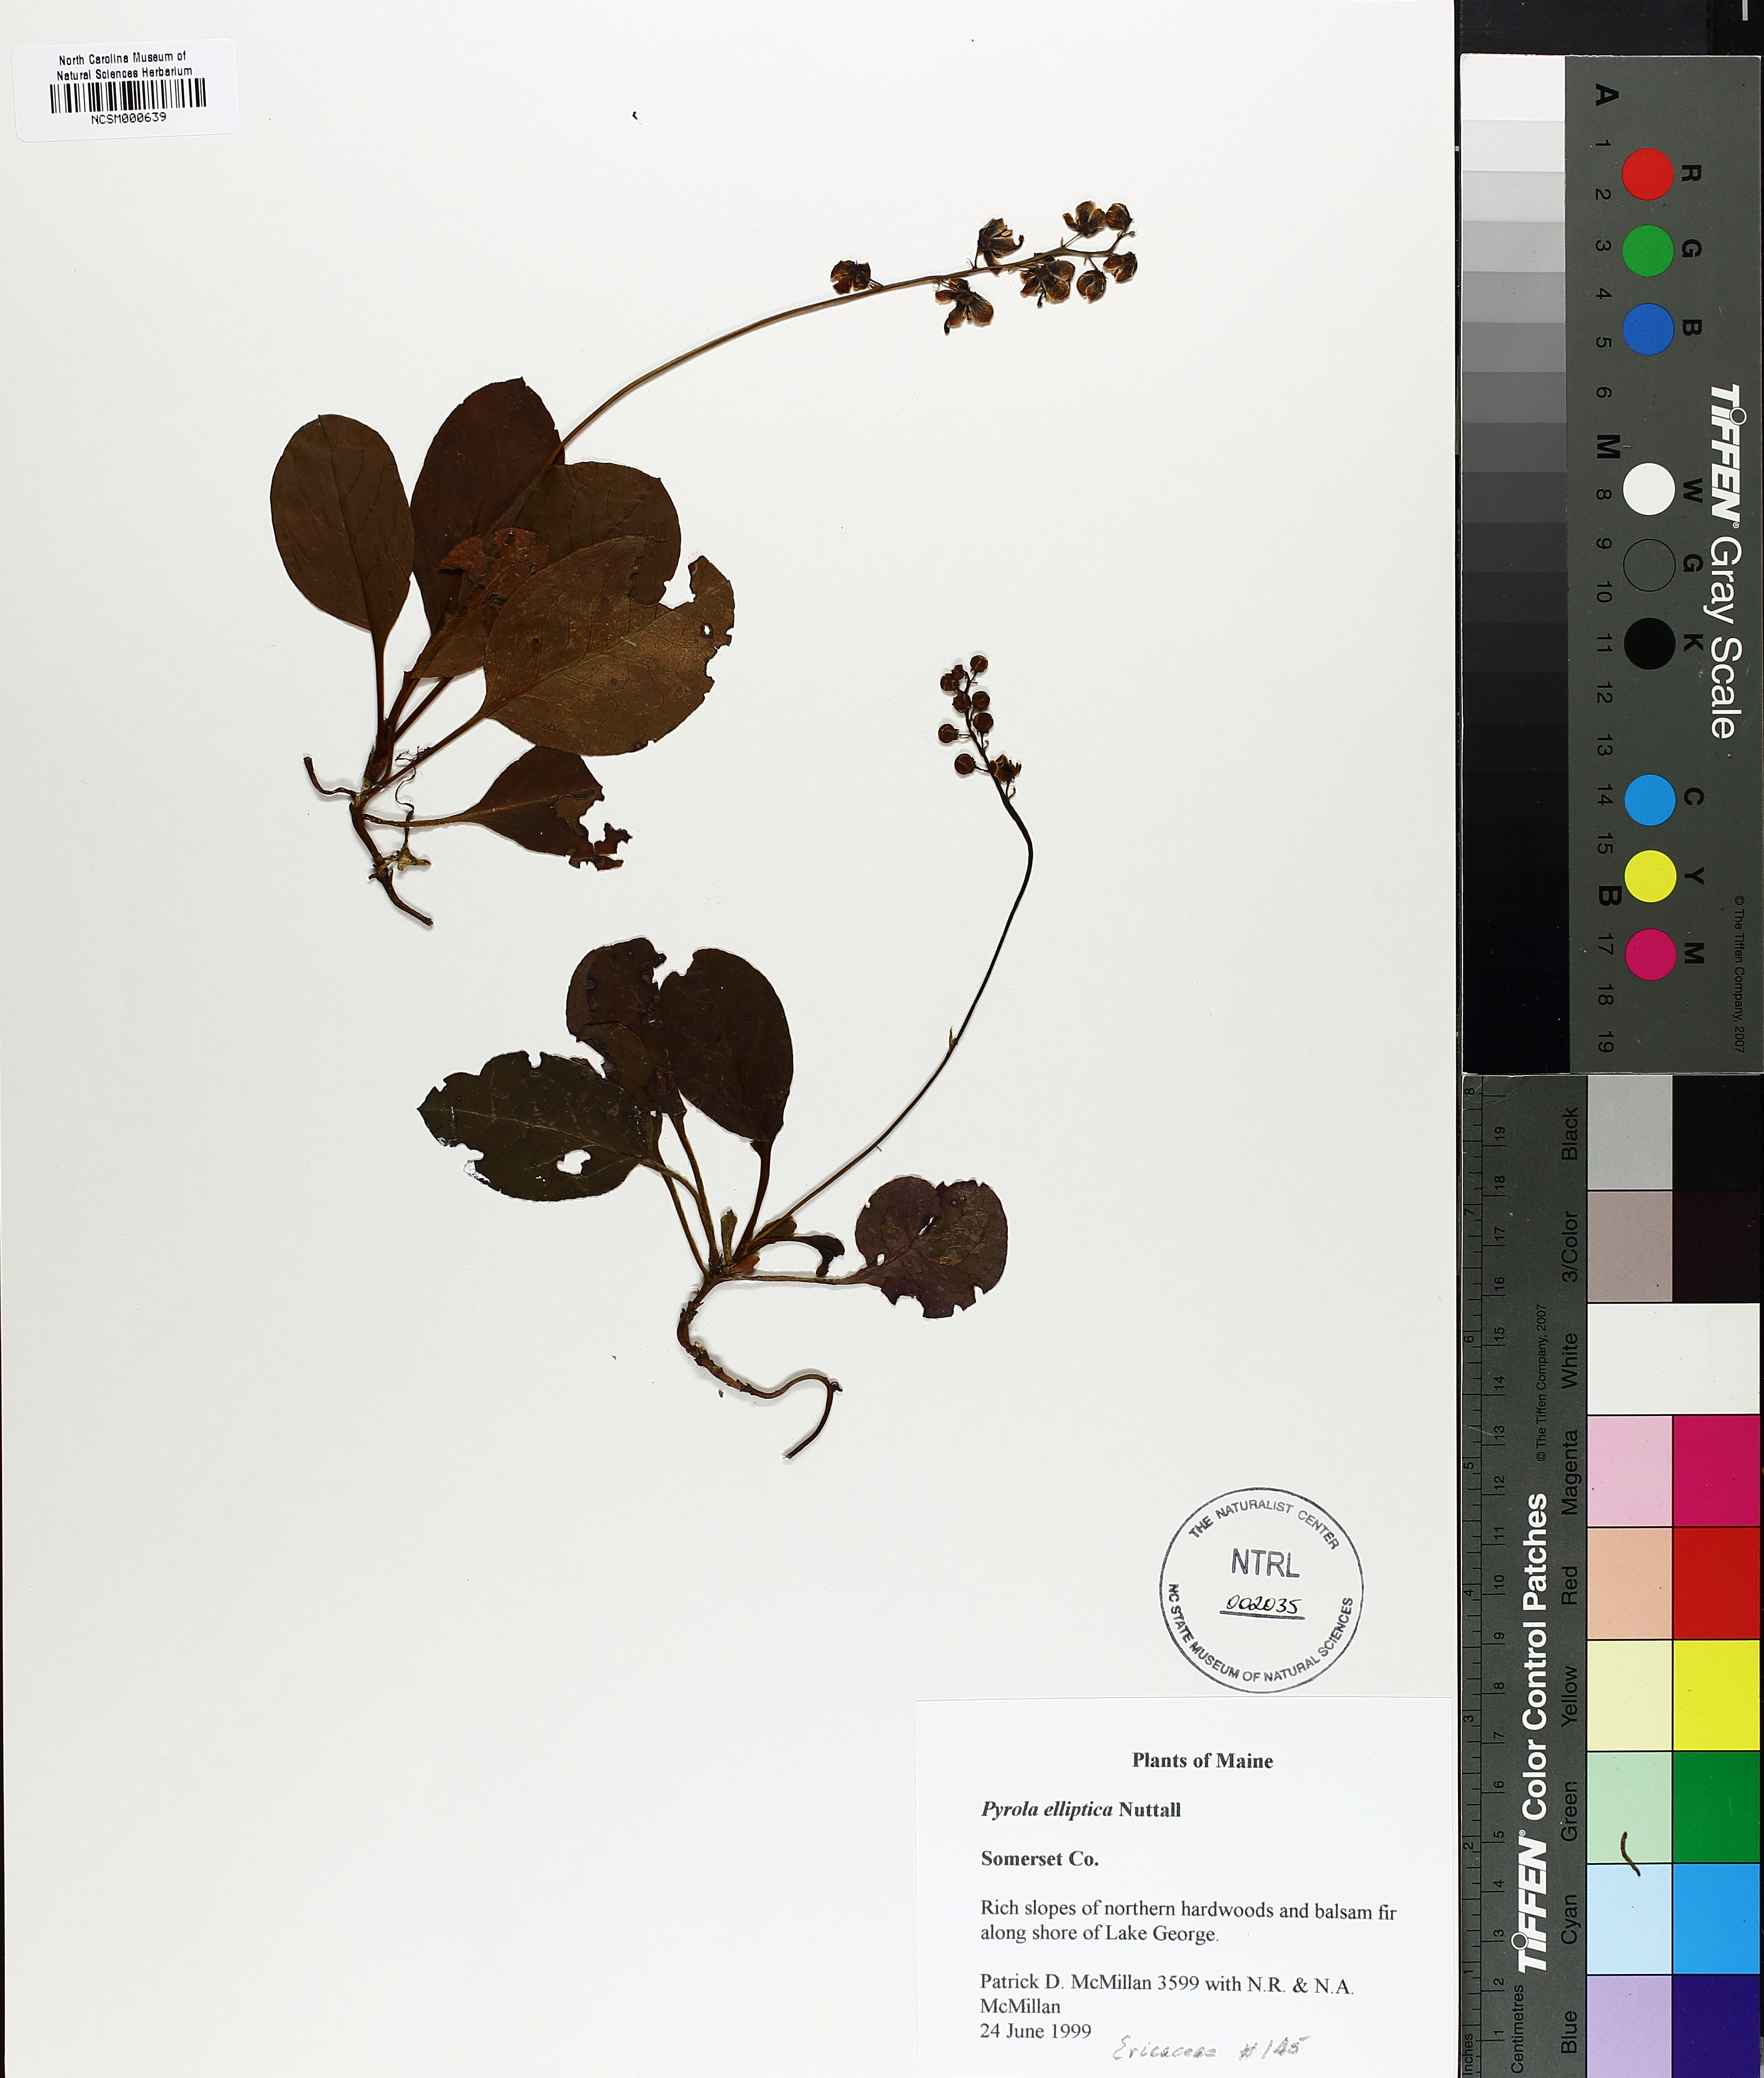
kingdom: Plantae
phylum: Tracheophyta
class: Magnoliopsida
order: Ericales
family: Ericaceae
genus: Pyrola
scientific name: Pyrola elliptica
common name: Shinleaf
